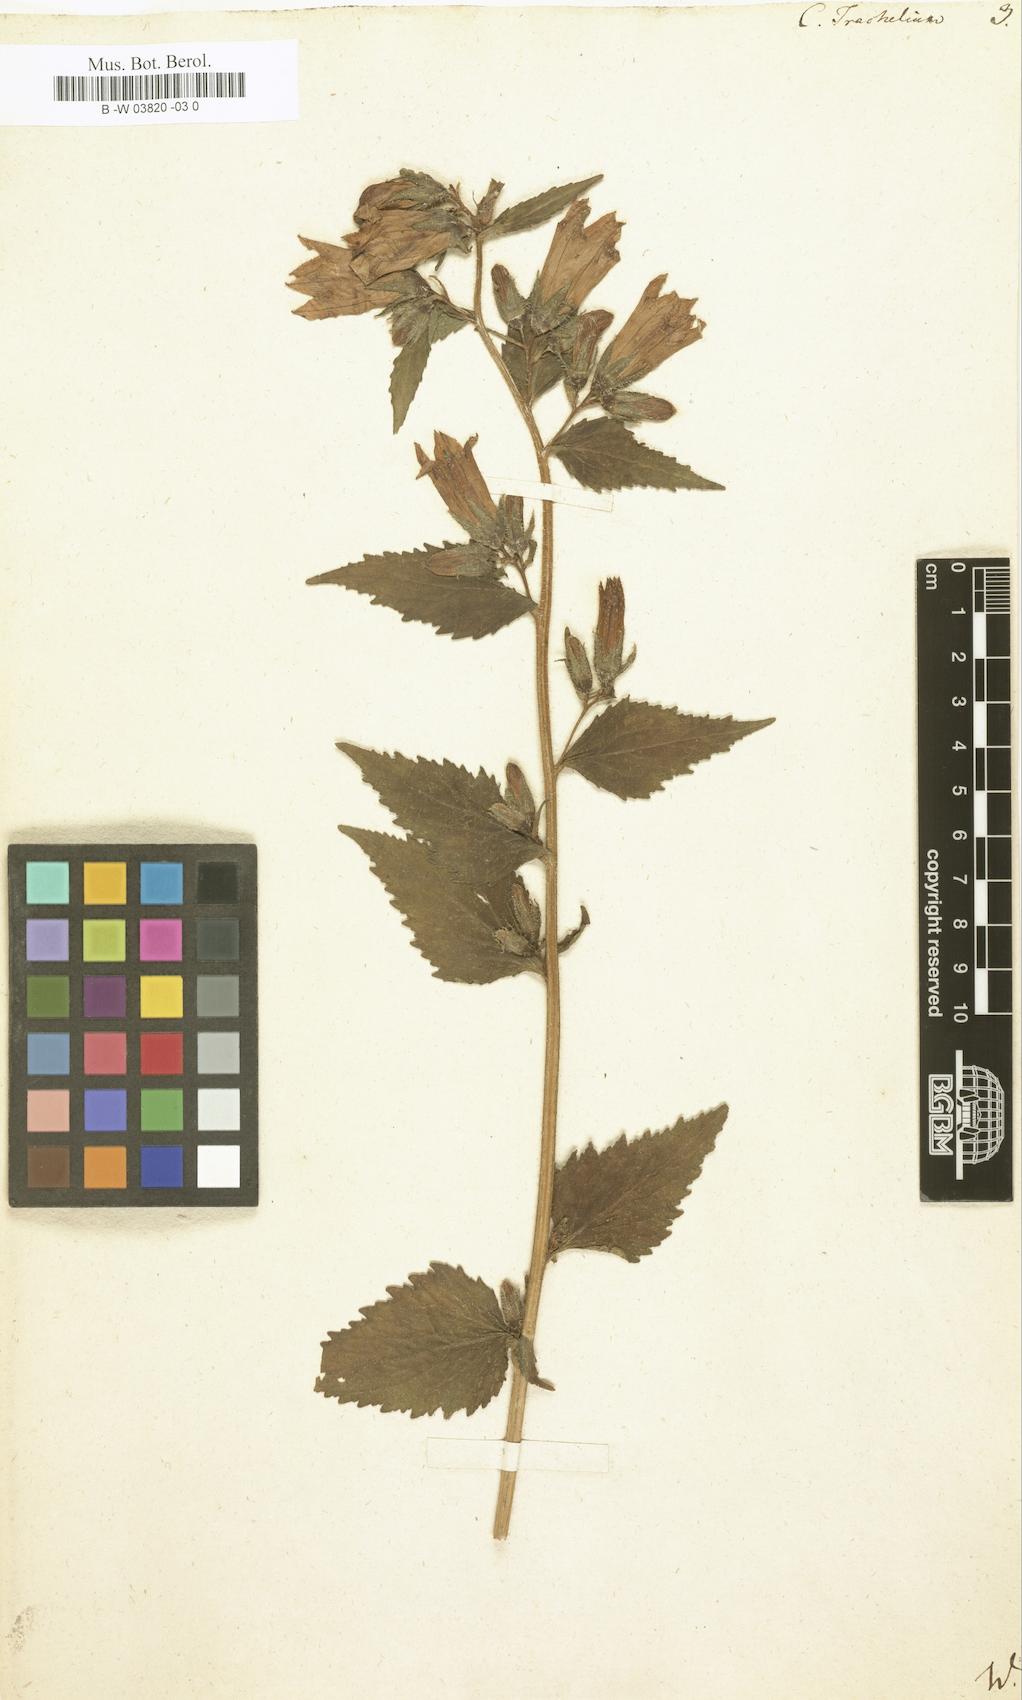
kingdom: Plantae
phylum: Tracheophyta
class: Magnoliopsida
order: Asterales
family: Campanulaceae
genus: Campanula
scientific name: Campanula trachelium
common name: Nettle-leaved bellflower
